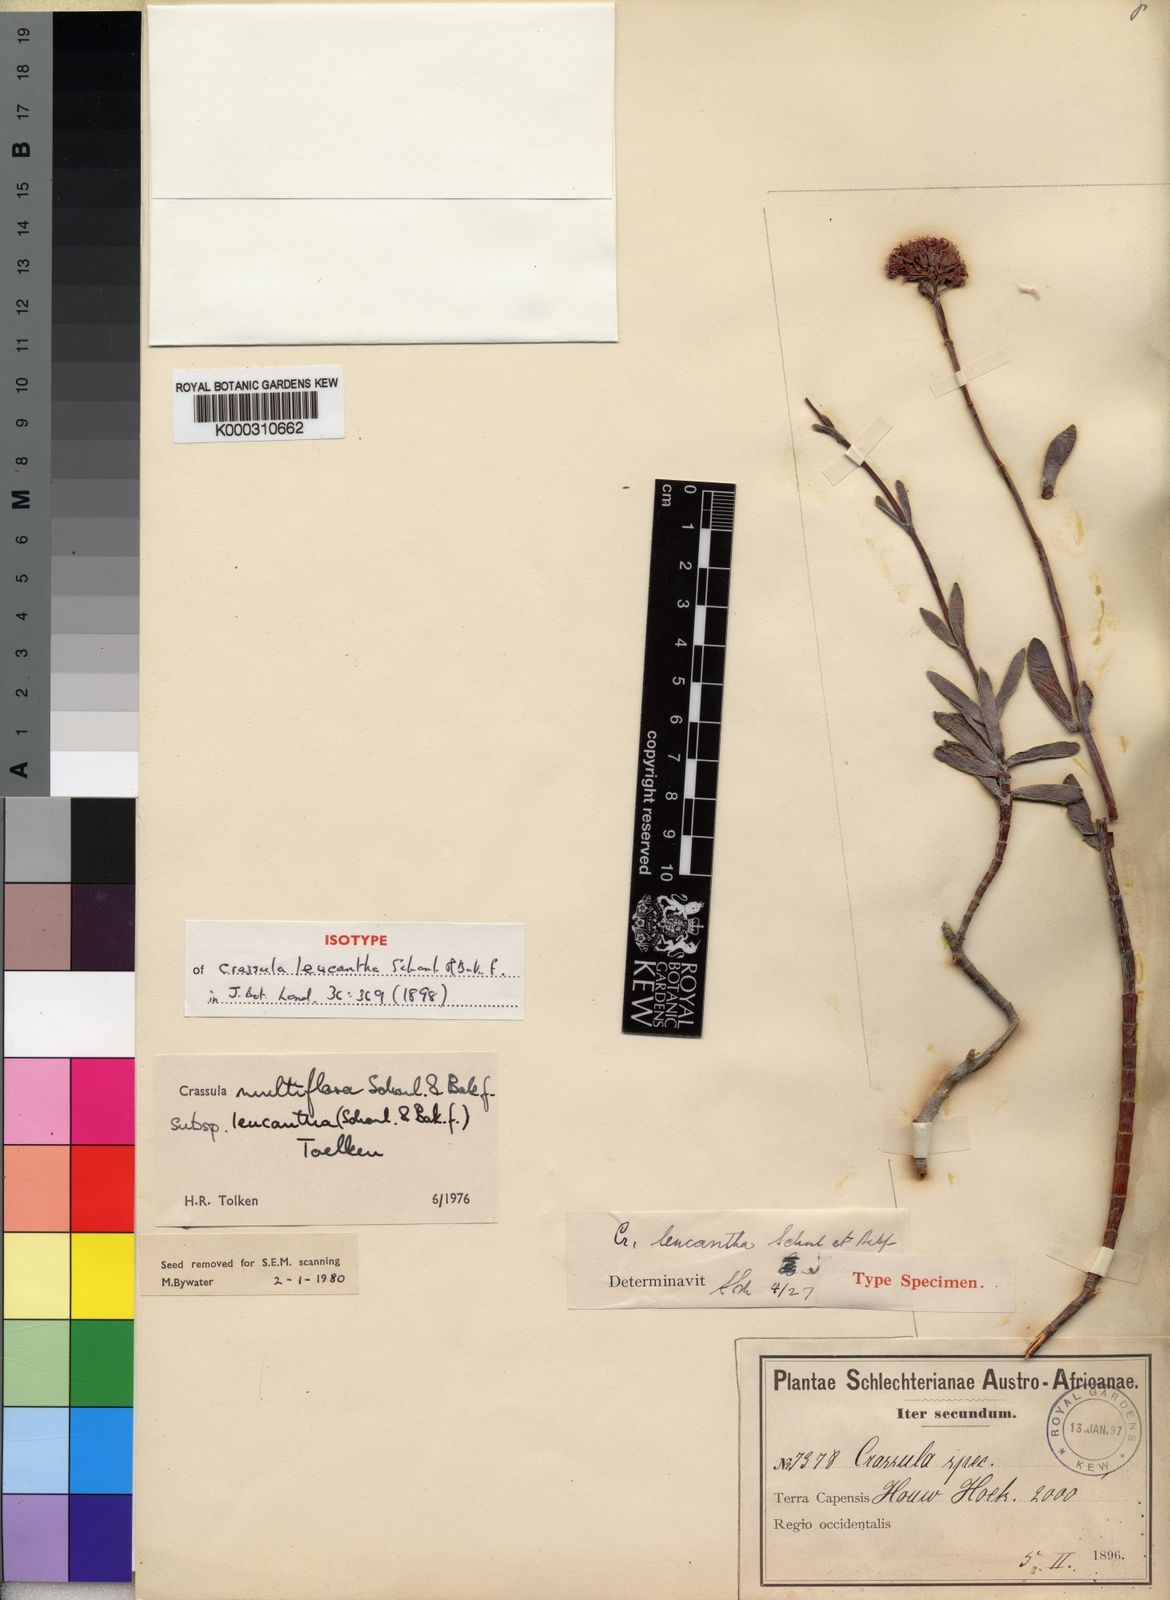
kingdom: Plantae
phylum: Tracheophyta
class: Magnoliopsida
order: Saxifragales
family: Crassulaceae
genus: Crassula
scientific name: Crassula
